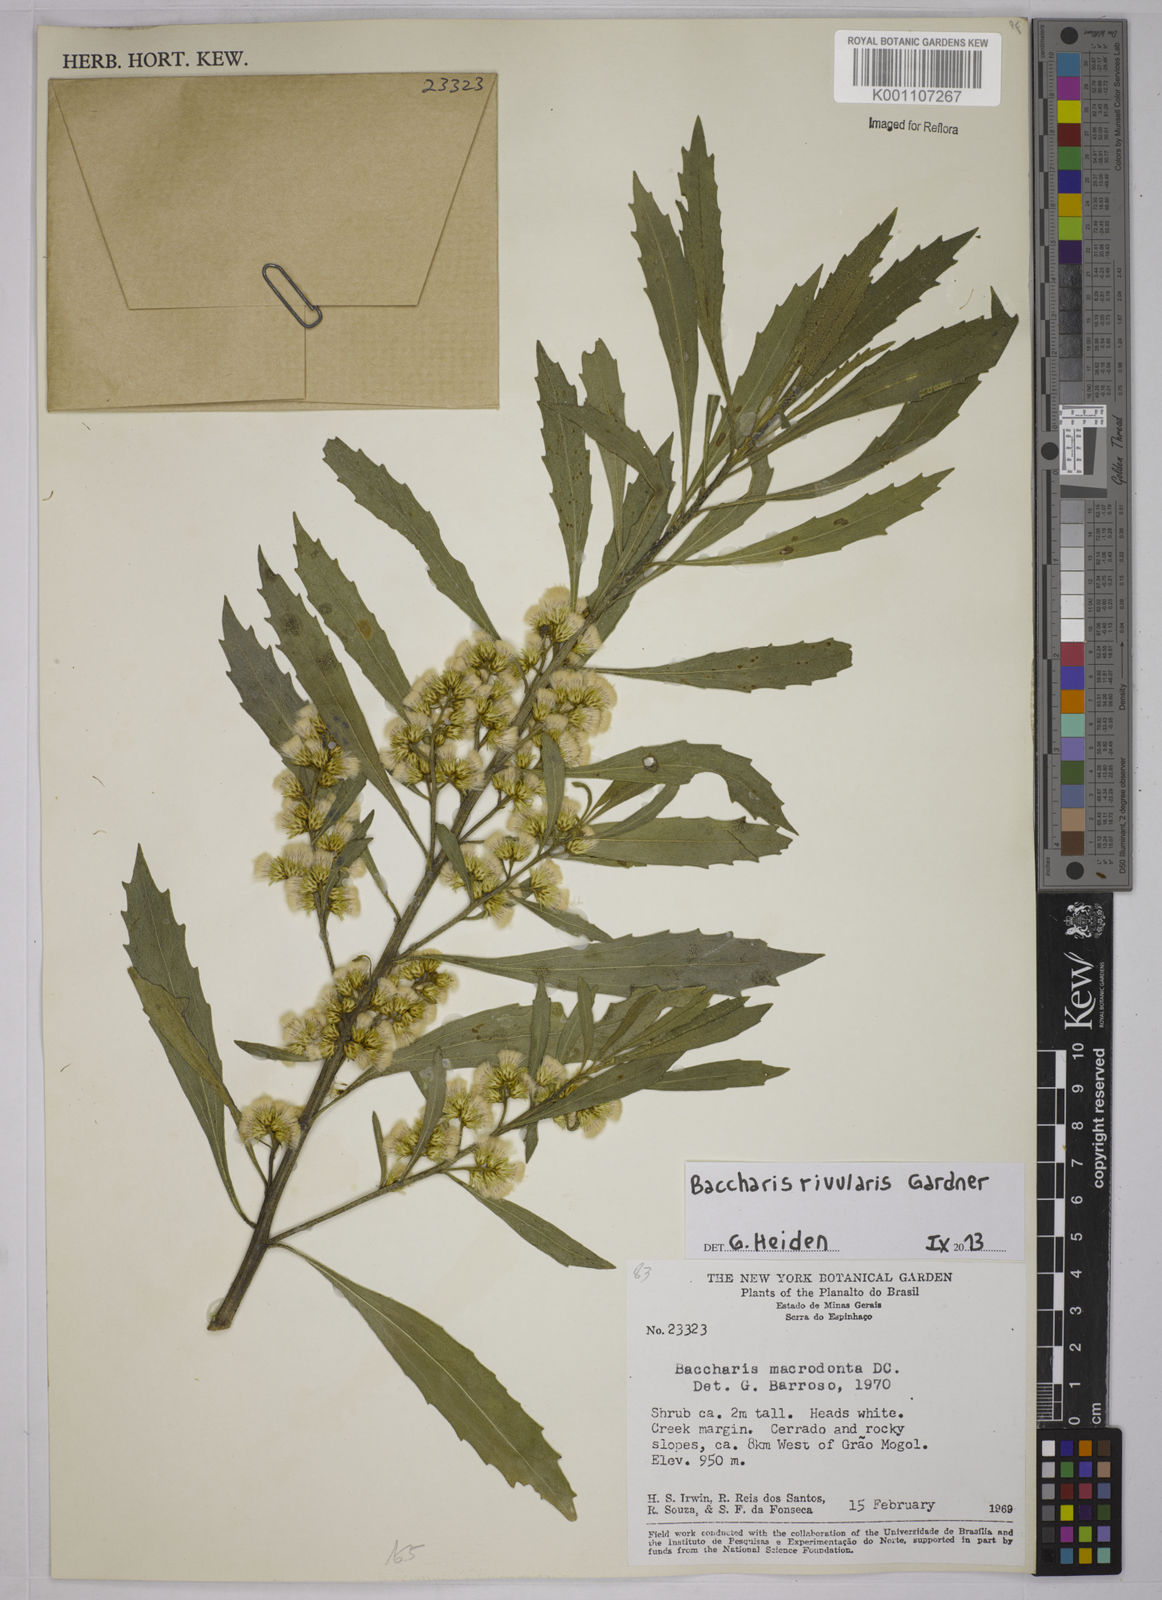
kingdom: Plantae
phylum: Tracheophyta
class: Magnoliopsida
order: Asterales
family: Asteraceae
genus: Baccharis
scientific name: Baccharis rivularis
